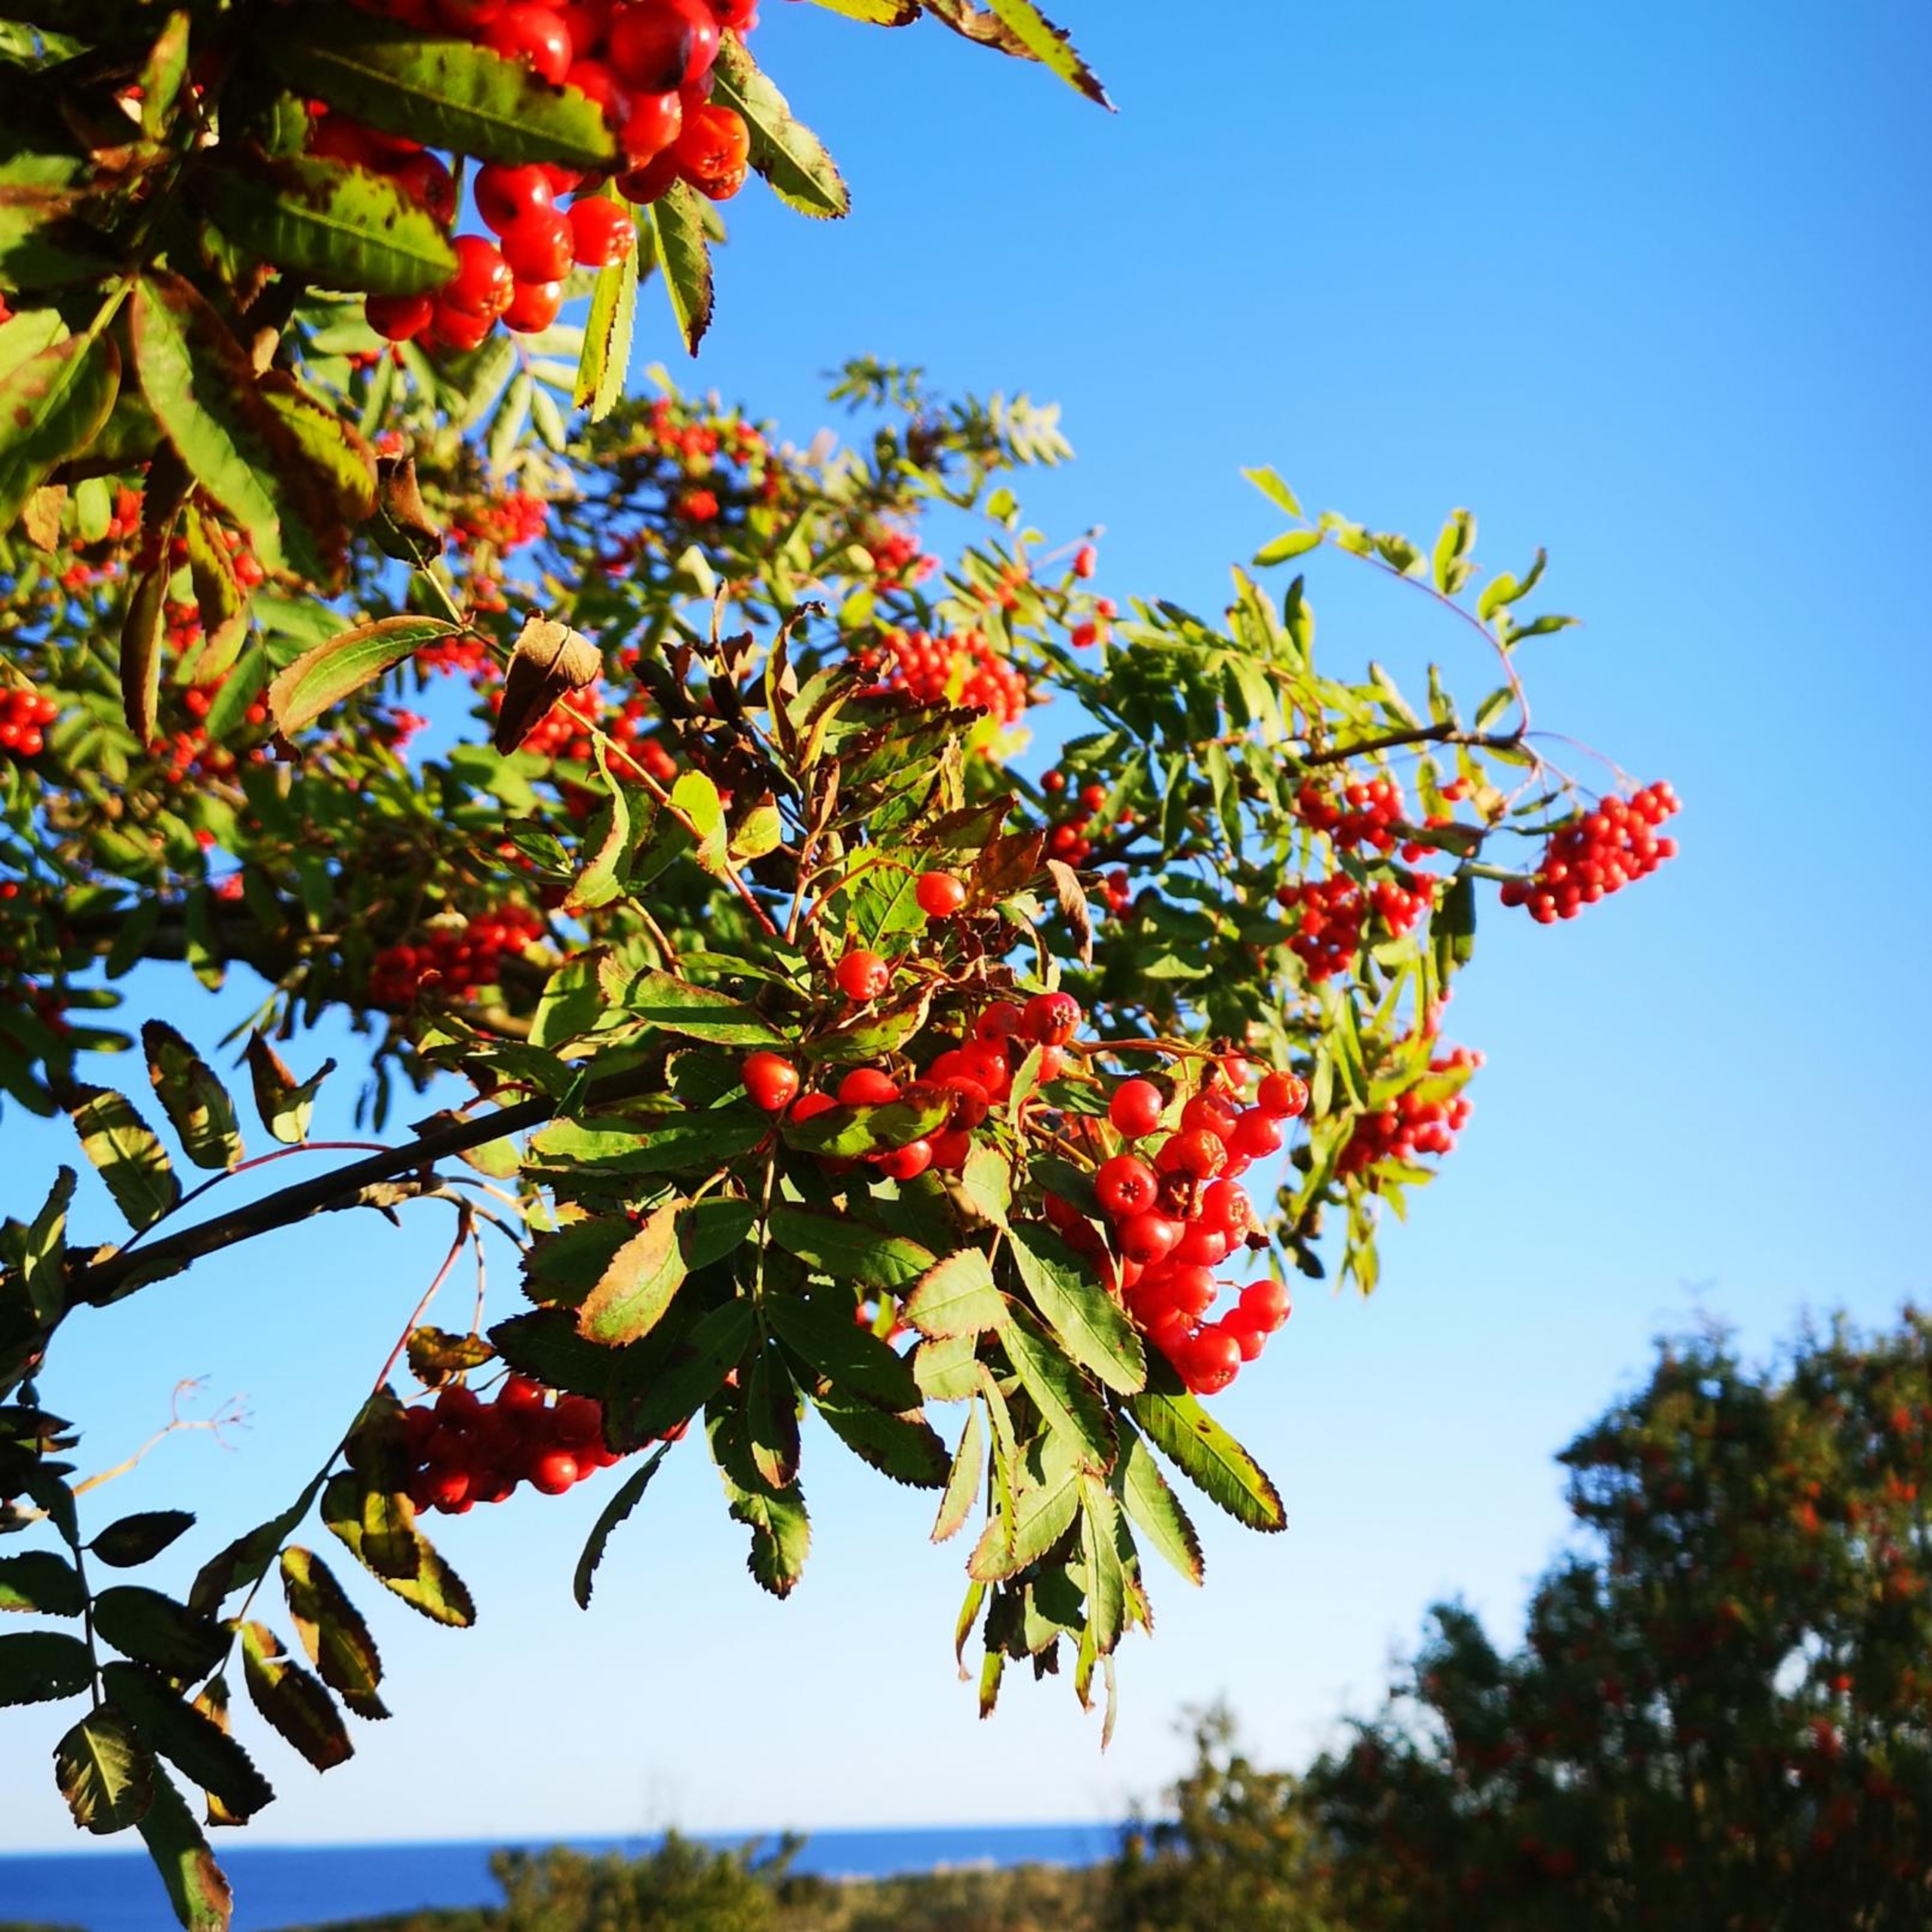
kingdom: Plantae
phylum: Tracheophyta
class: Magnoliopsida
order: Rosales
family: Rosaceae
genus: Sorbus
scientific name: Sorbus aucuparia
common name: Almindelig røn
